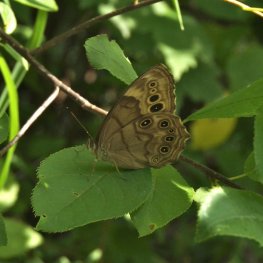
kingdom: Animalia
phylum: Arthropoda
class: Insecta
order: Lepidoptera
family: Nymphalidae
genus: Lethe
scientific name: Lethe anthedon
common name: Northern Pearly-Eye
